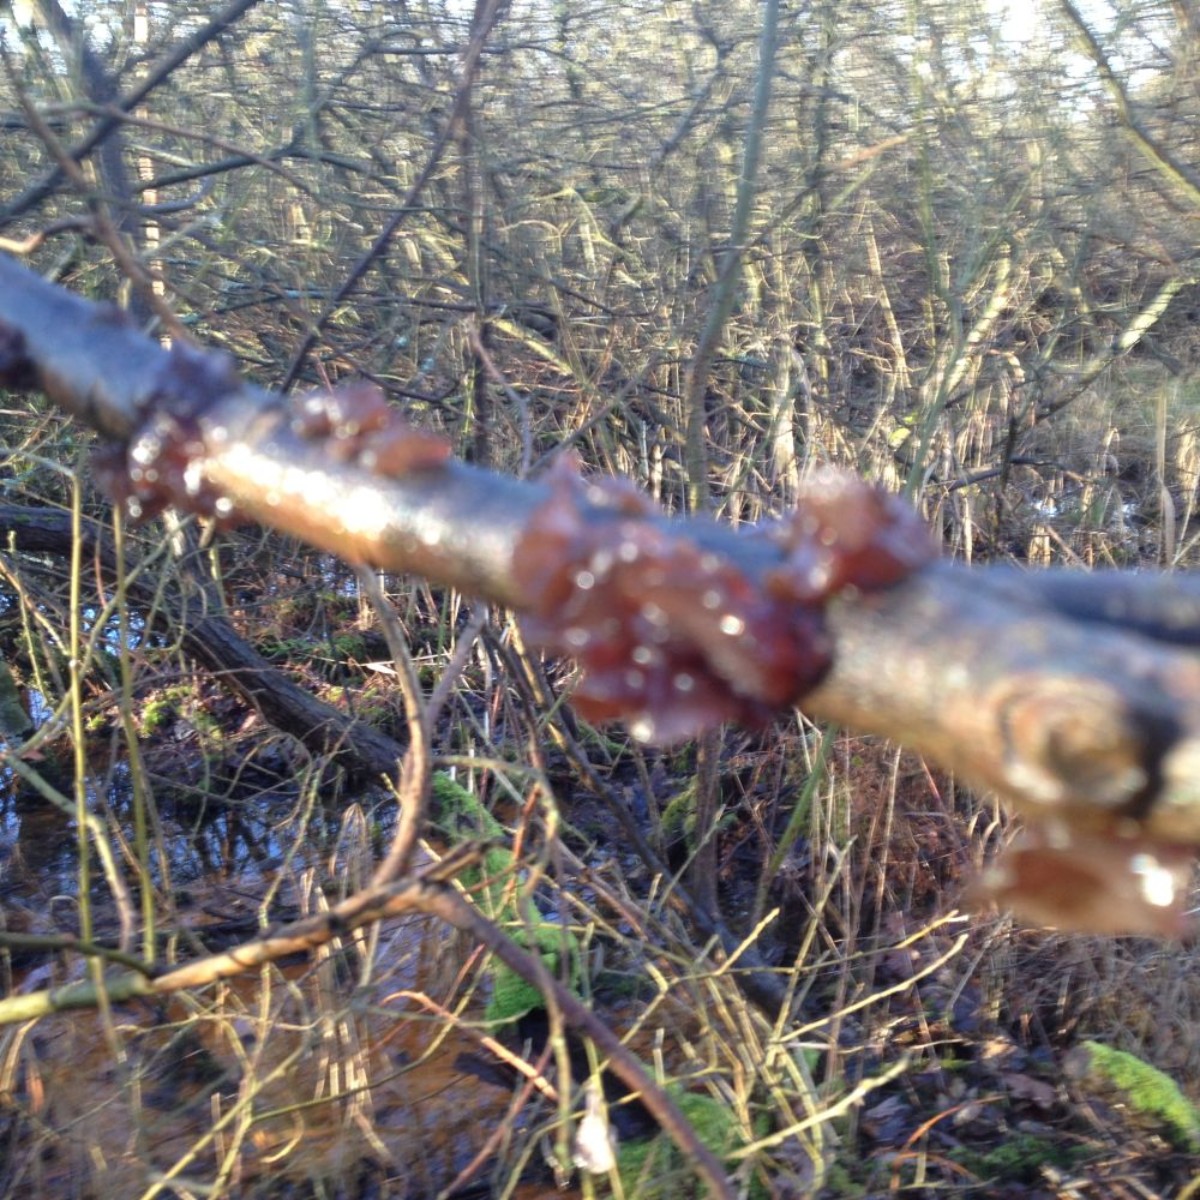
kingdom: Fungi
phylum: Basidiomycota
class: Agaricomycetes
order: Auriculariales
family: Auriculariaceae
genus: Exidia
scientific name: Exidia recisa
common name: pile-bævretop
